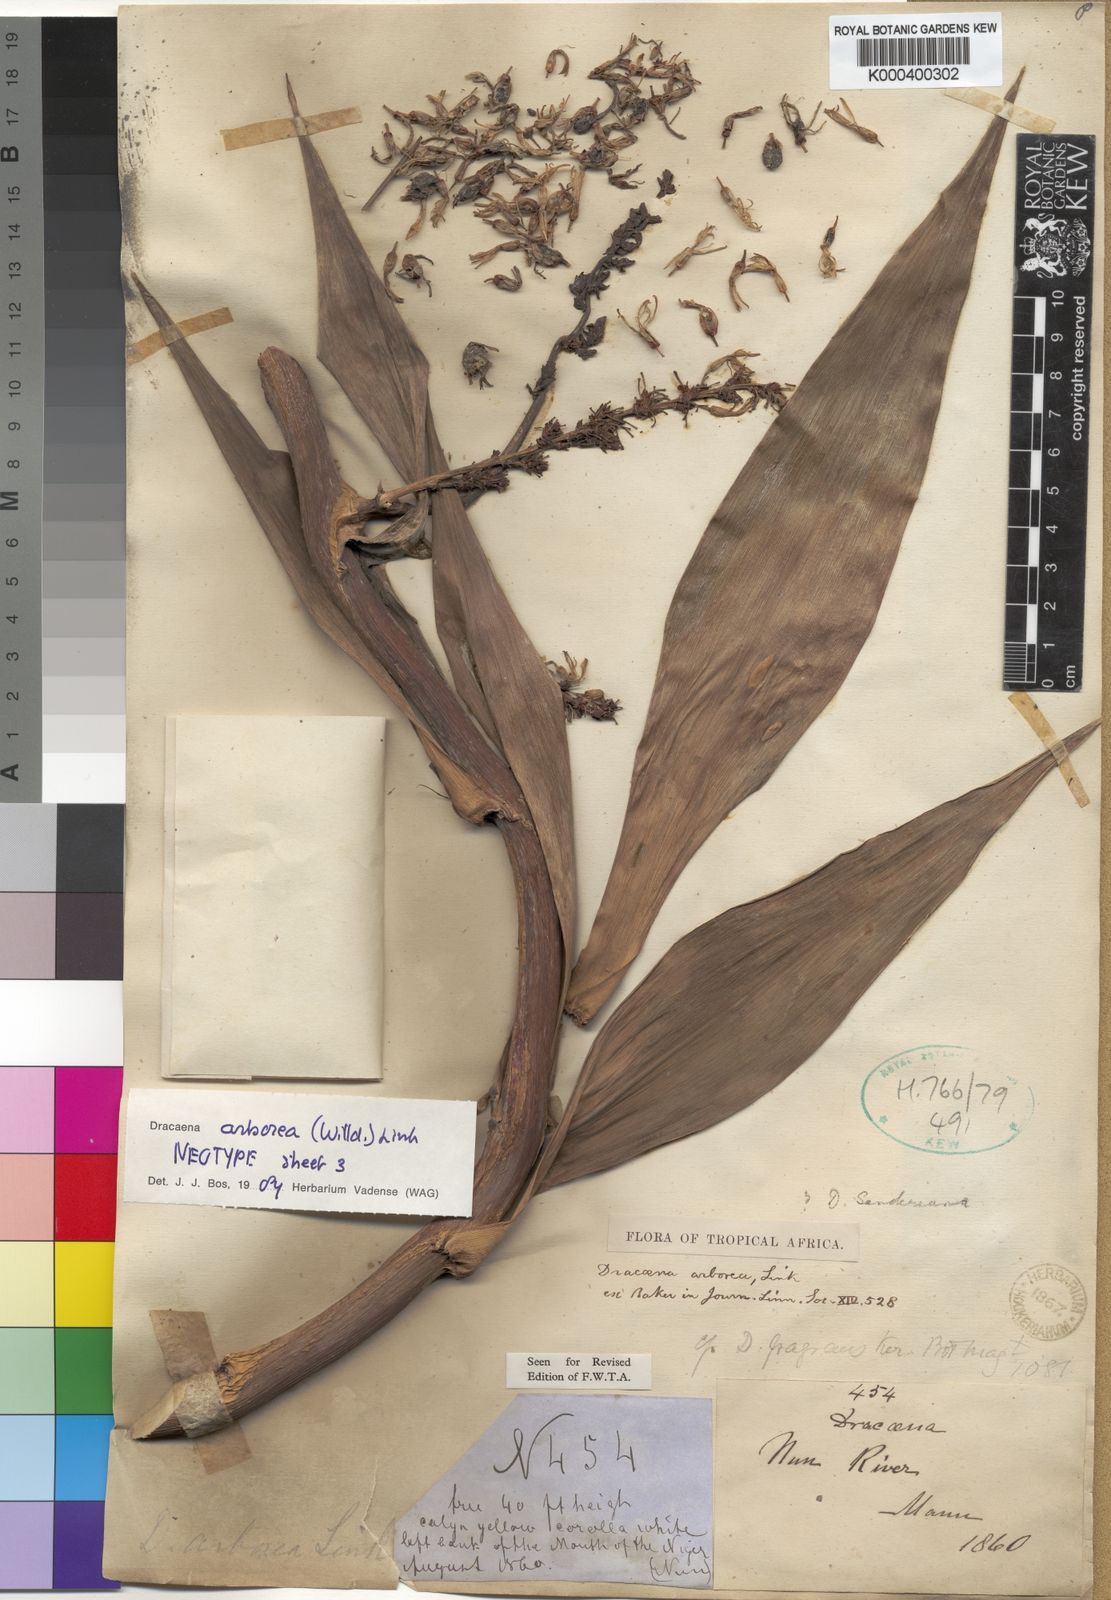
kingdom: Plantae
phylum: Tracheophyta
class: Liliopsida
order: Asparagales
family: Asparagaceae
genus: Dracaena
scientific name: Dracaena arborea
